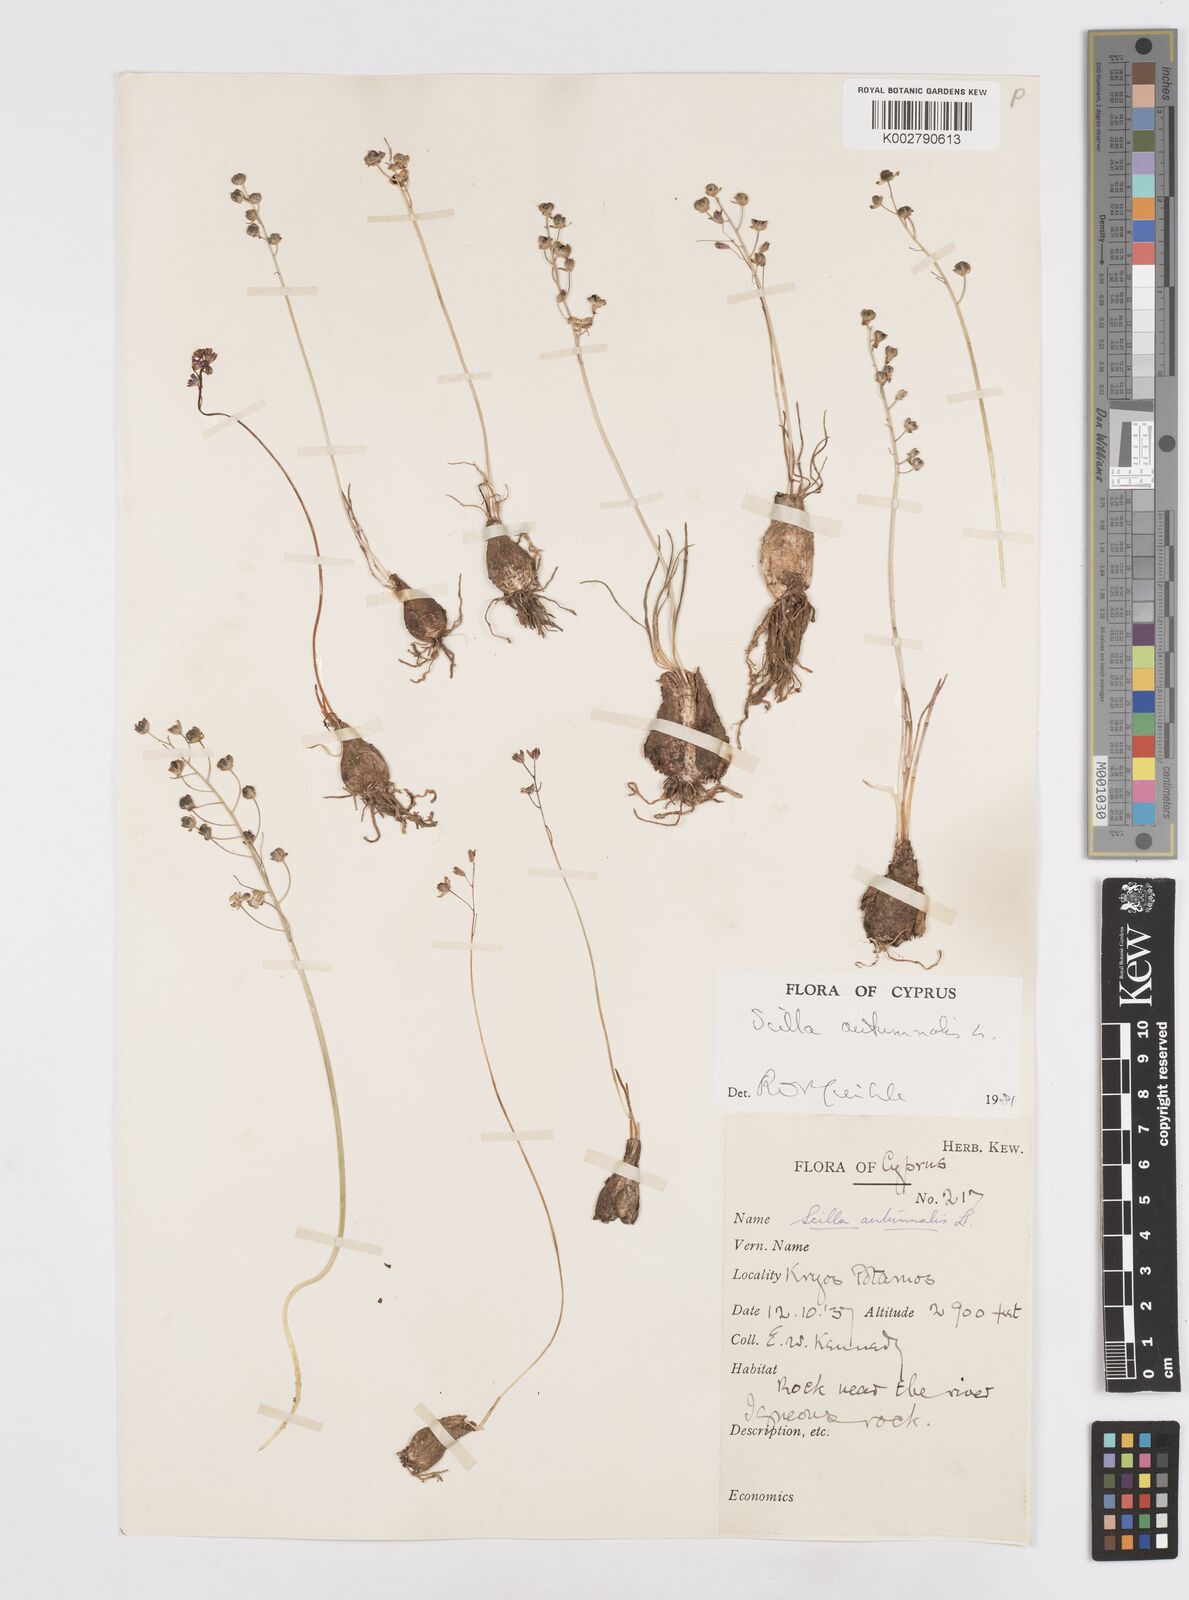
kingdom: Plantae
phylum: Tracheophyta
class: Liliopsida
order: Asparagales
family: Asparagaceae
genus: Prospero
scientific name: Prospero autumnale
